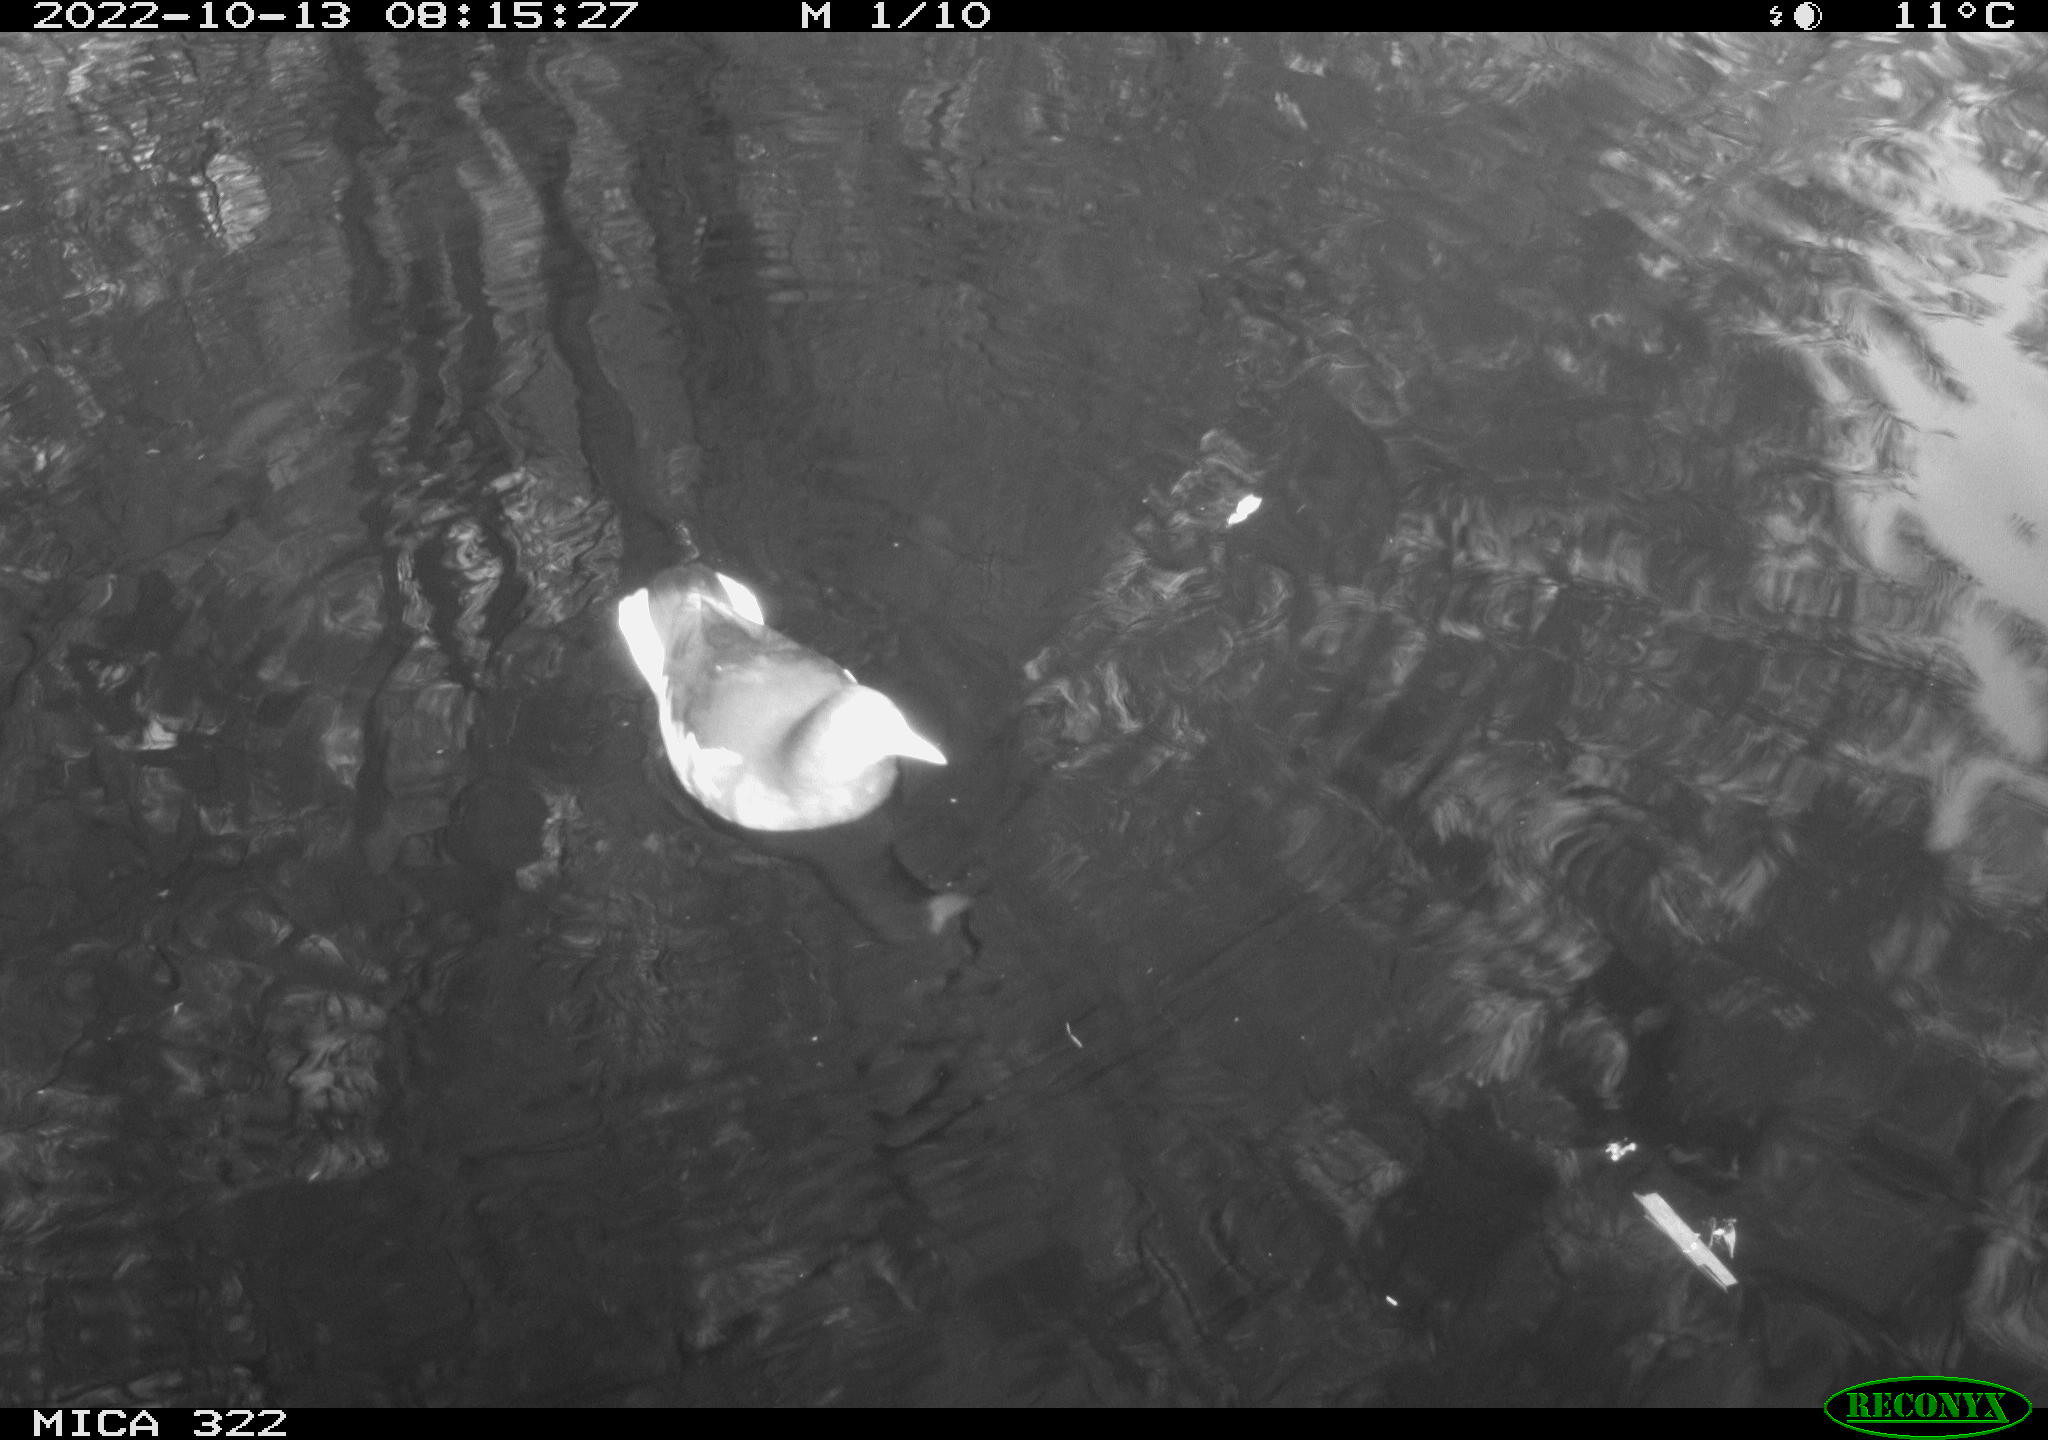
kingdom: Animalia
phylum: Chordata
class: Aves
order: Gruiformes
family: Rallidae
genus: Gallinula
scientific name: Gallinula chloropus
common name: Common moorhen
